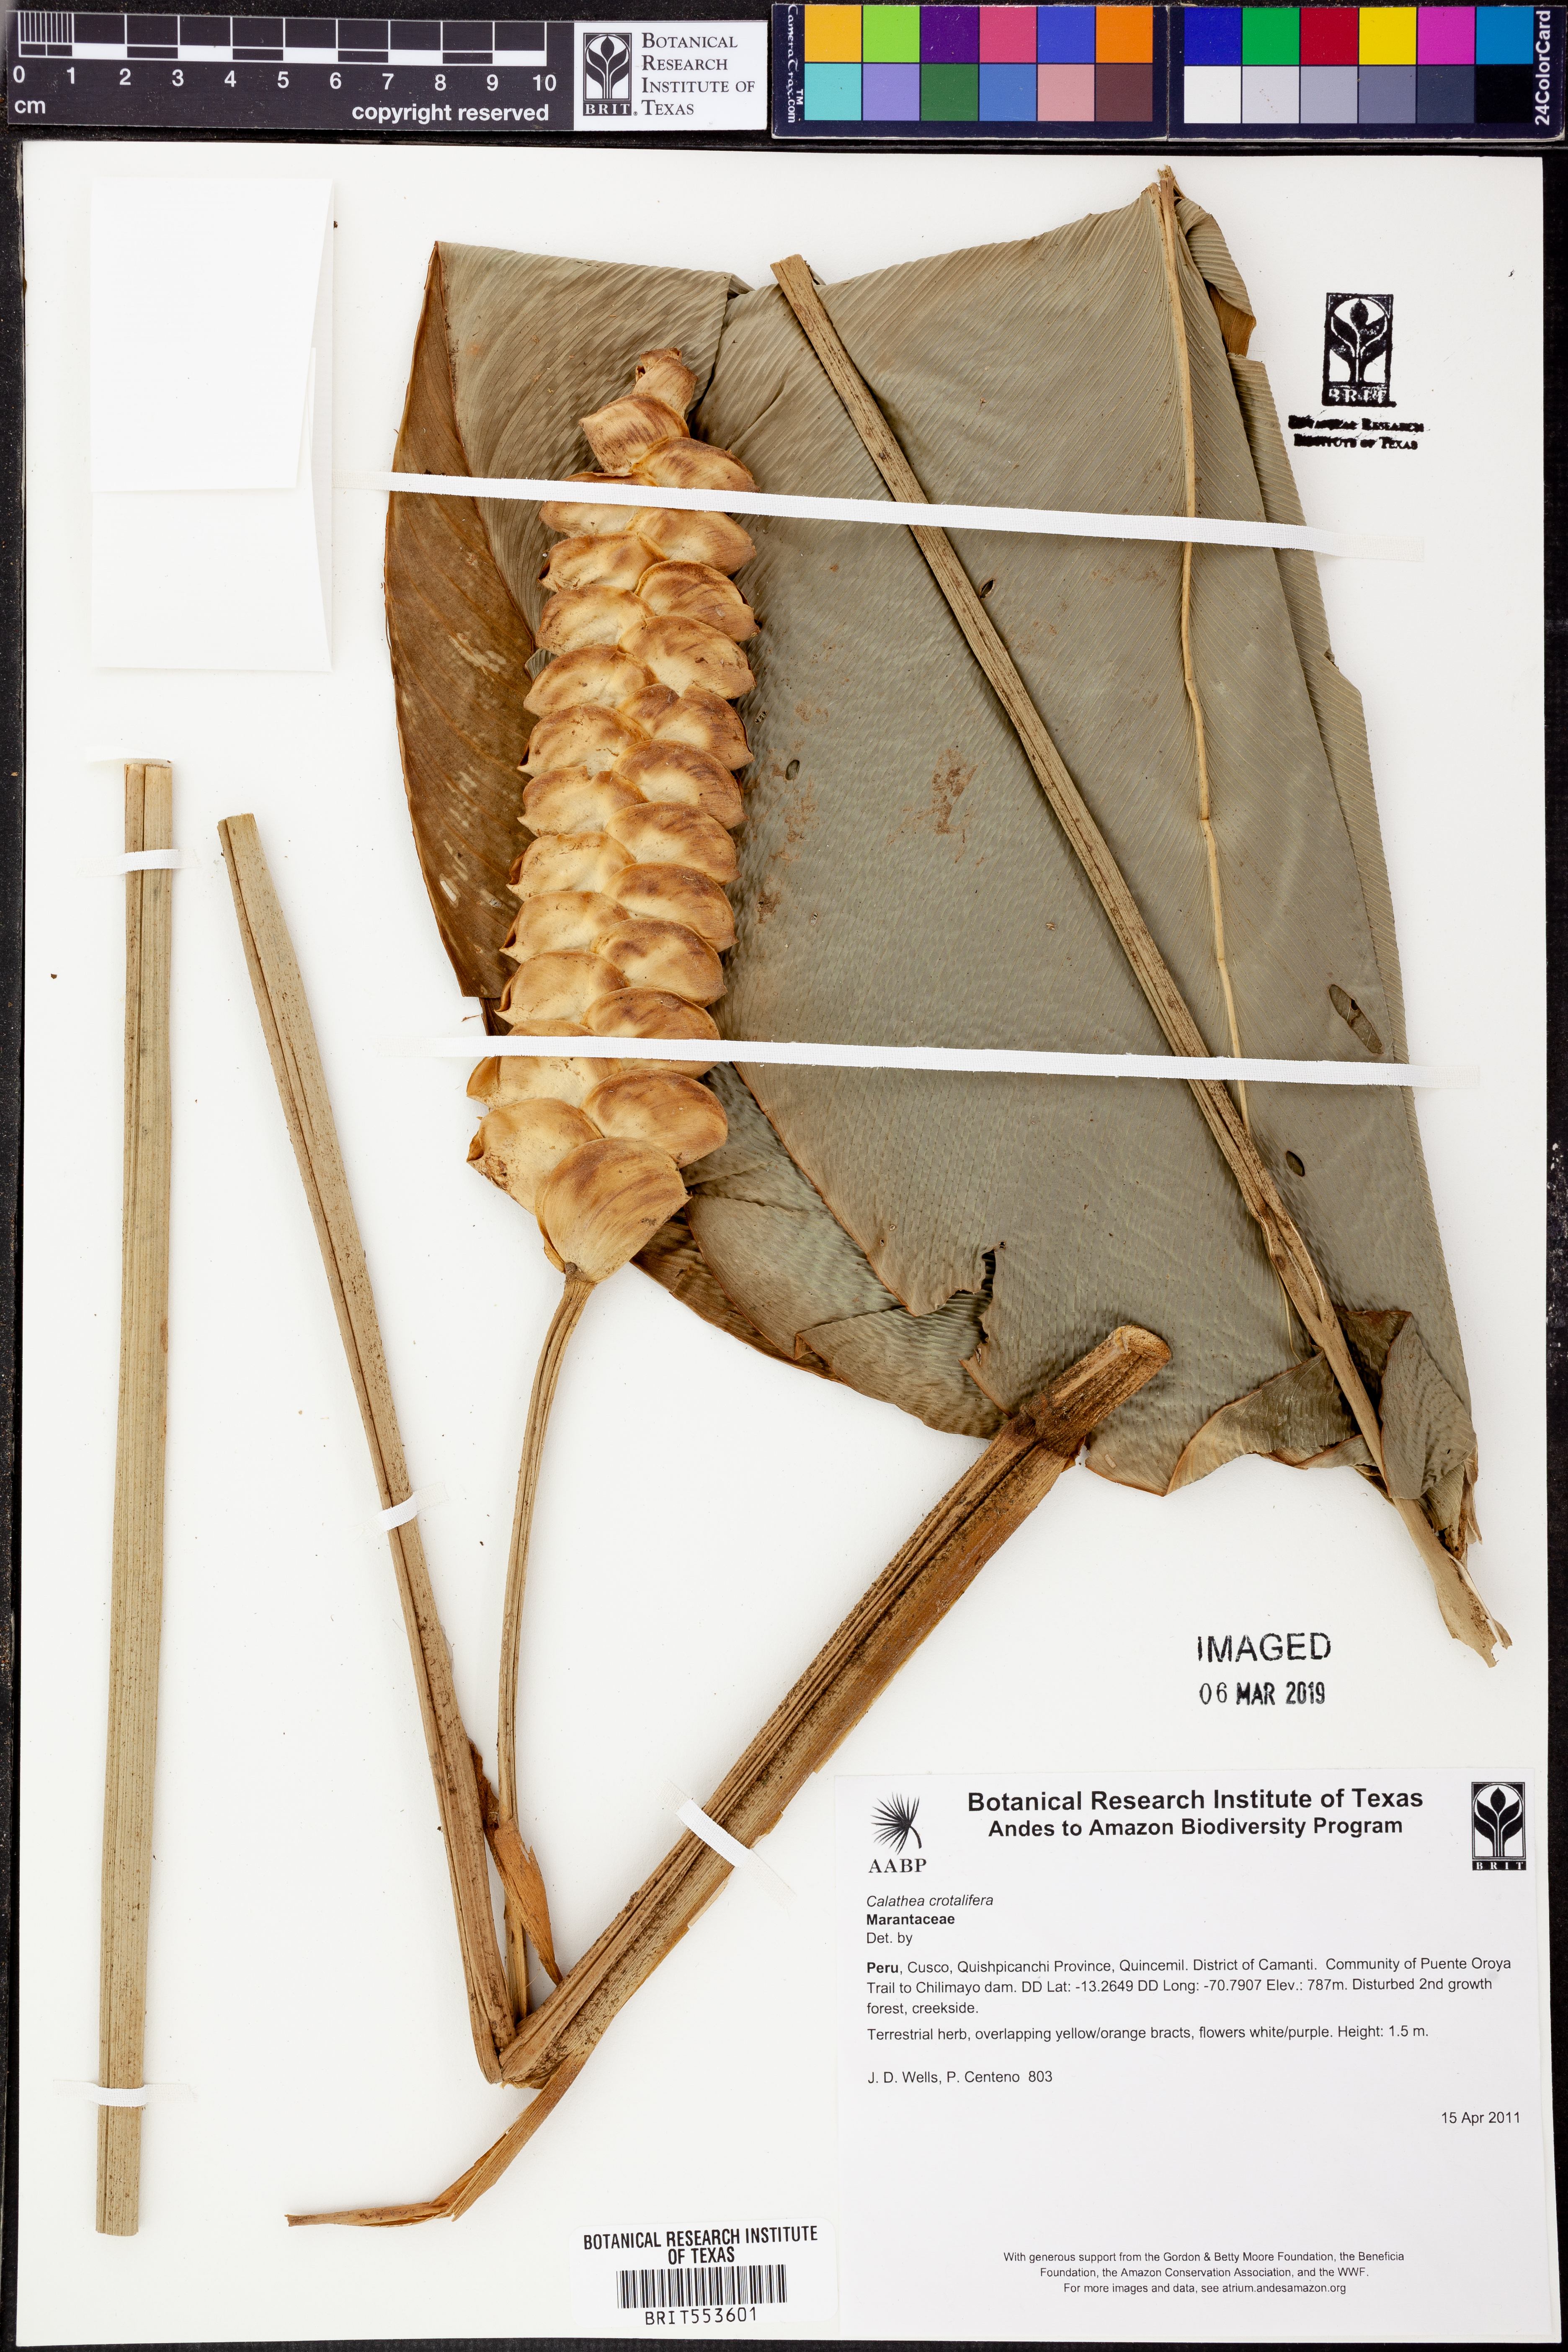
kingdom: Plantae
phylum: Tracheophyta
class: Liliopsida
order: Zingiberales
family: Marantaceae
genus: Calathea
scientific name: Calathea crotalifera
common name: Rattlesnake plant
